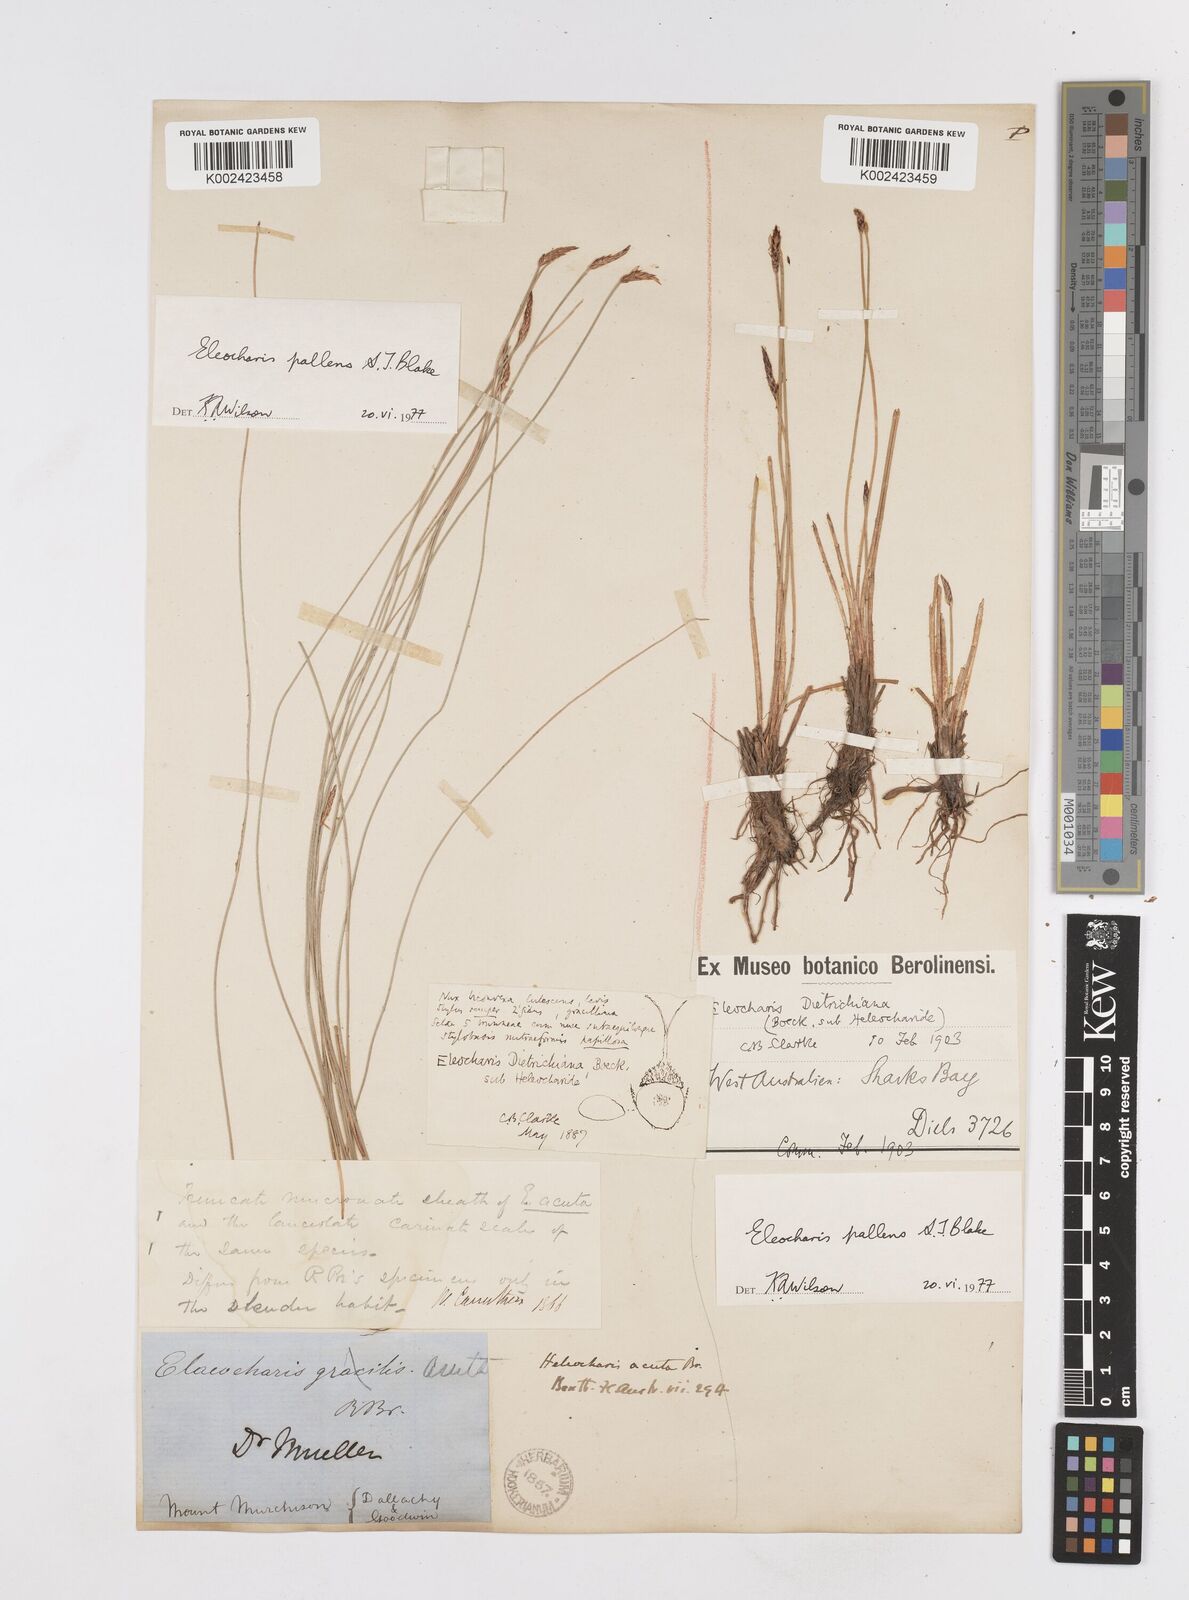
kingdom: Plantae
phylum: Tracheophyta
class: Liliopsida
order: Poales
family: Cyperaceae
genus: Eleocharis
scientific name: Eleocharis acuta
